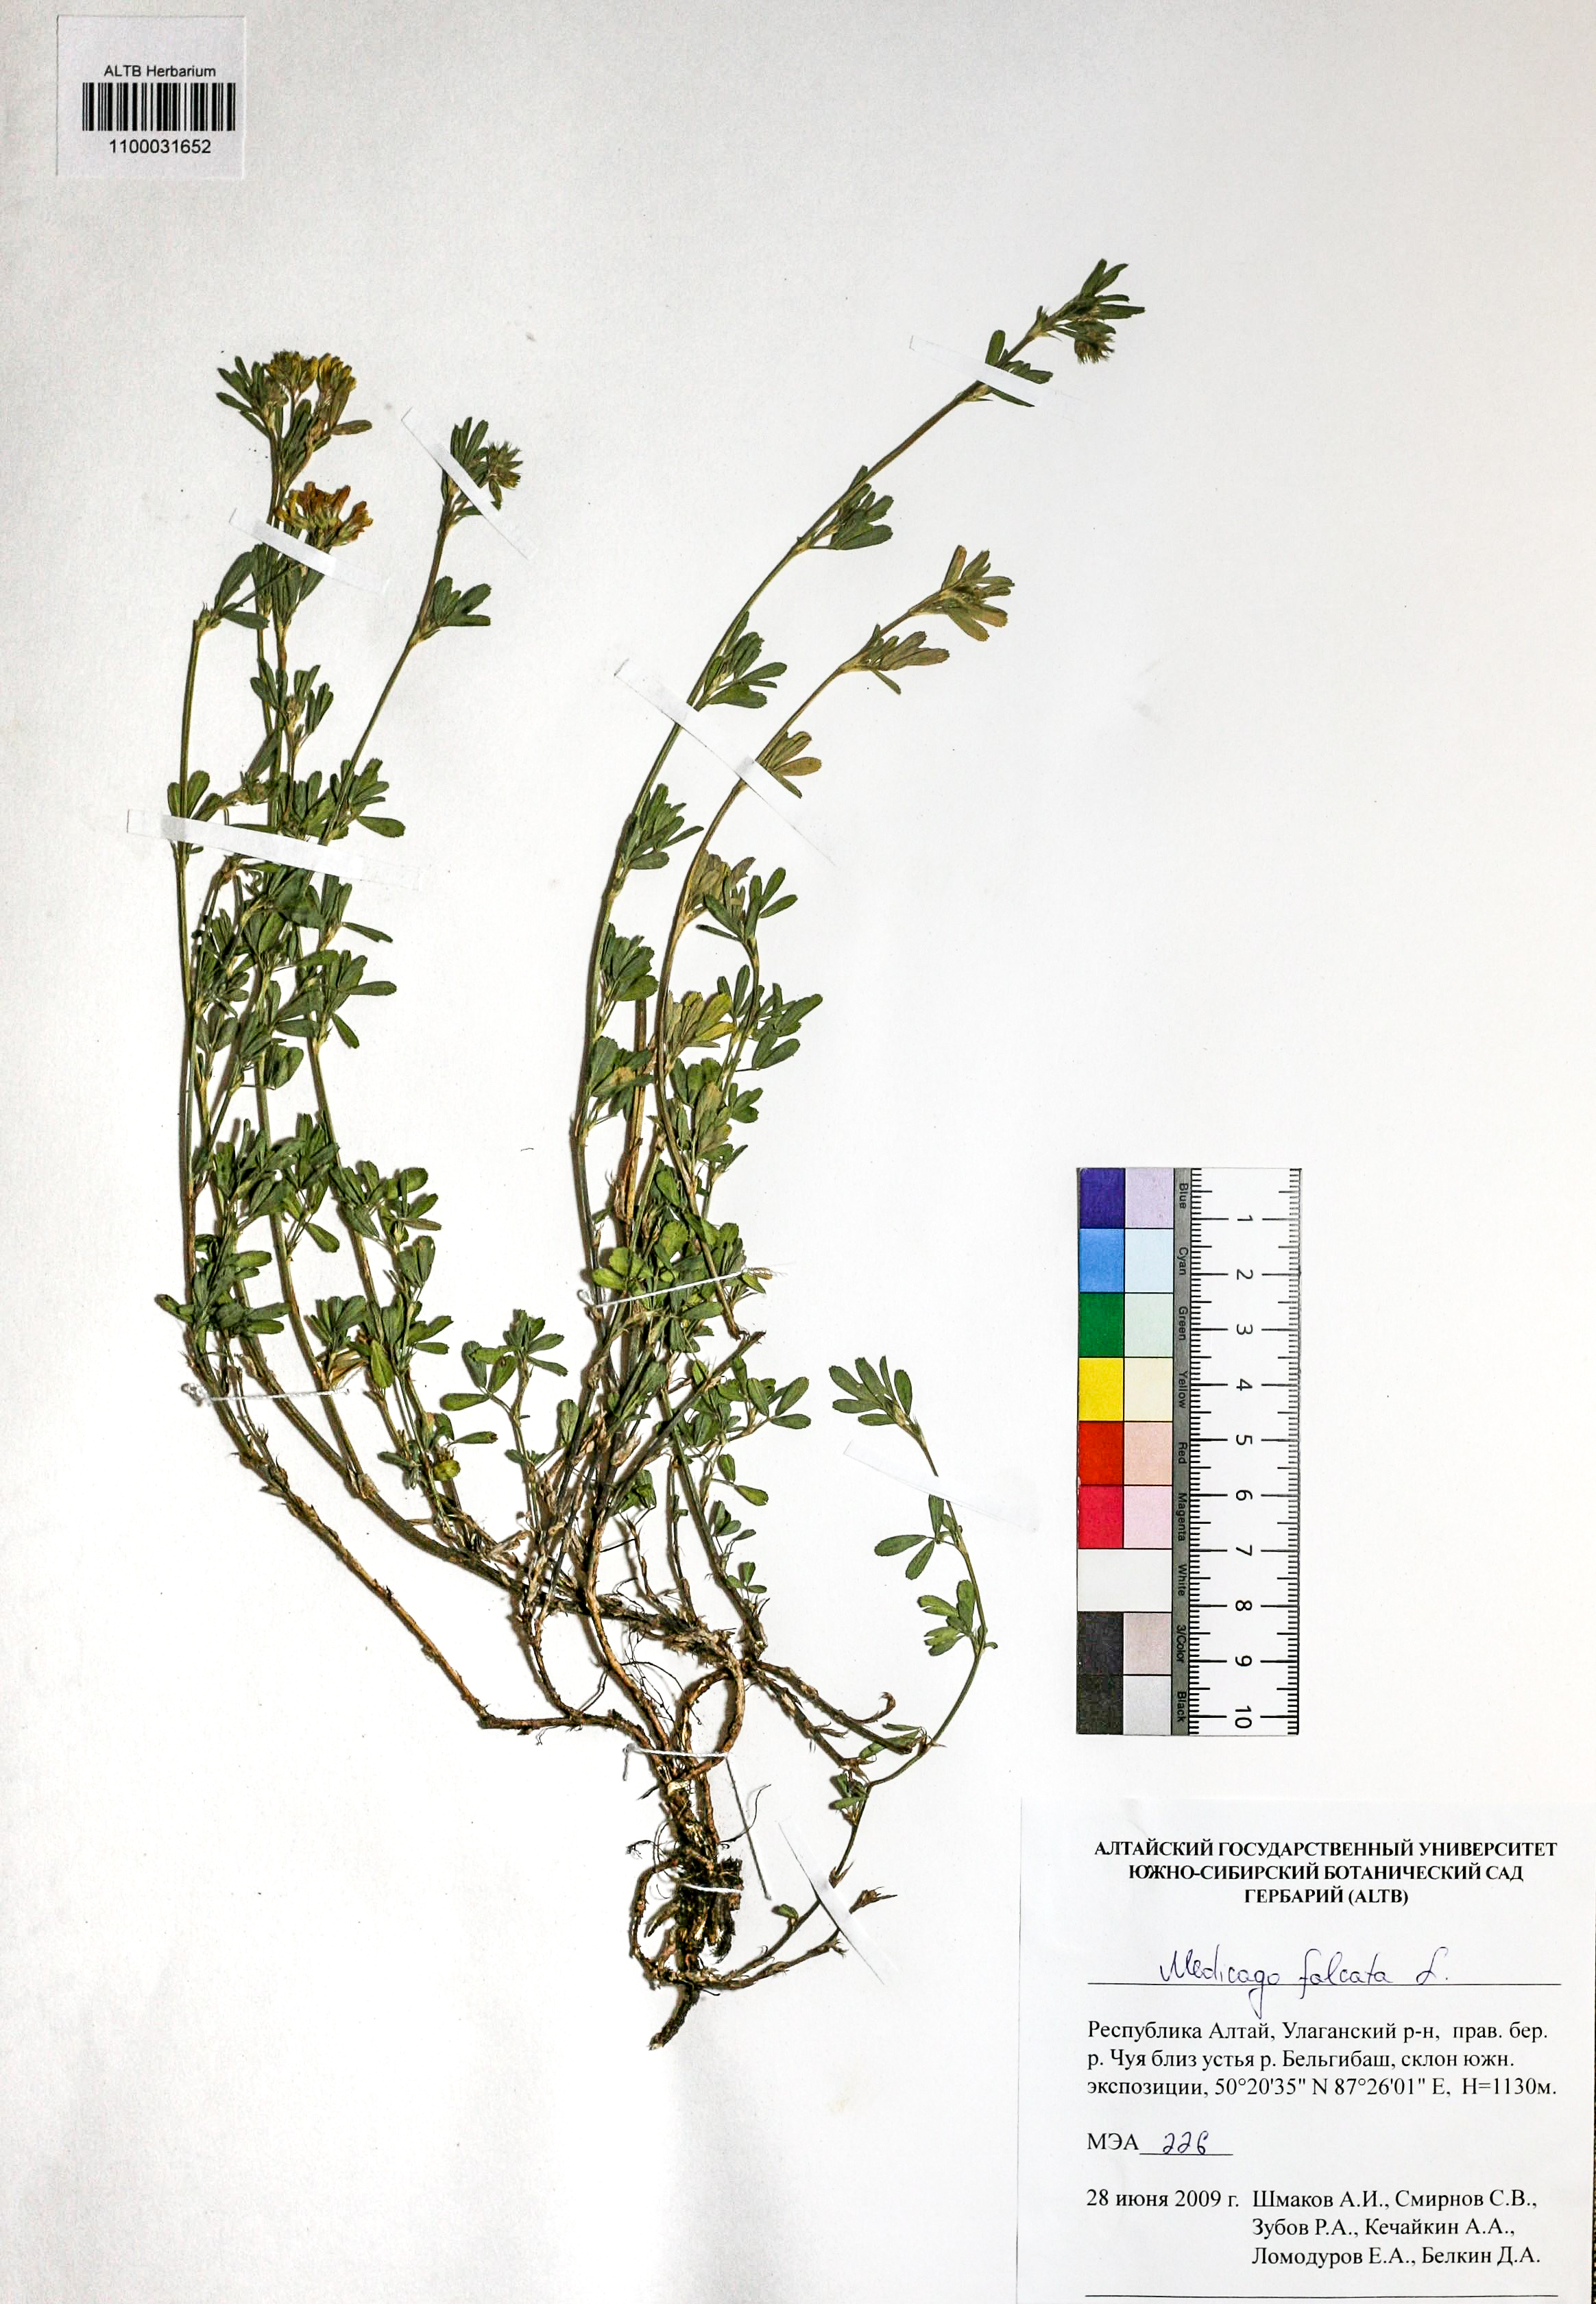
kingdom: Plantae
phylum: Tracheophyta
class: Magnoliopsida
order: Fabales
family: Fabaceae
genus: Medicago
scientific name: Medicago falcata
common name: Sickle medick
